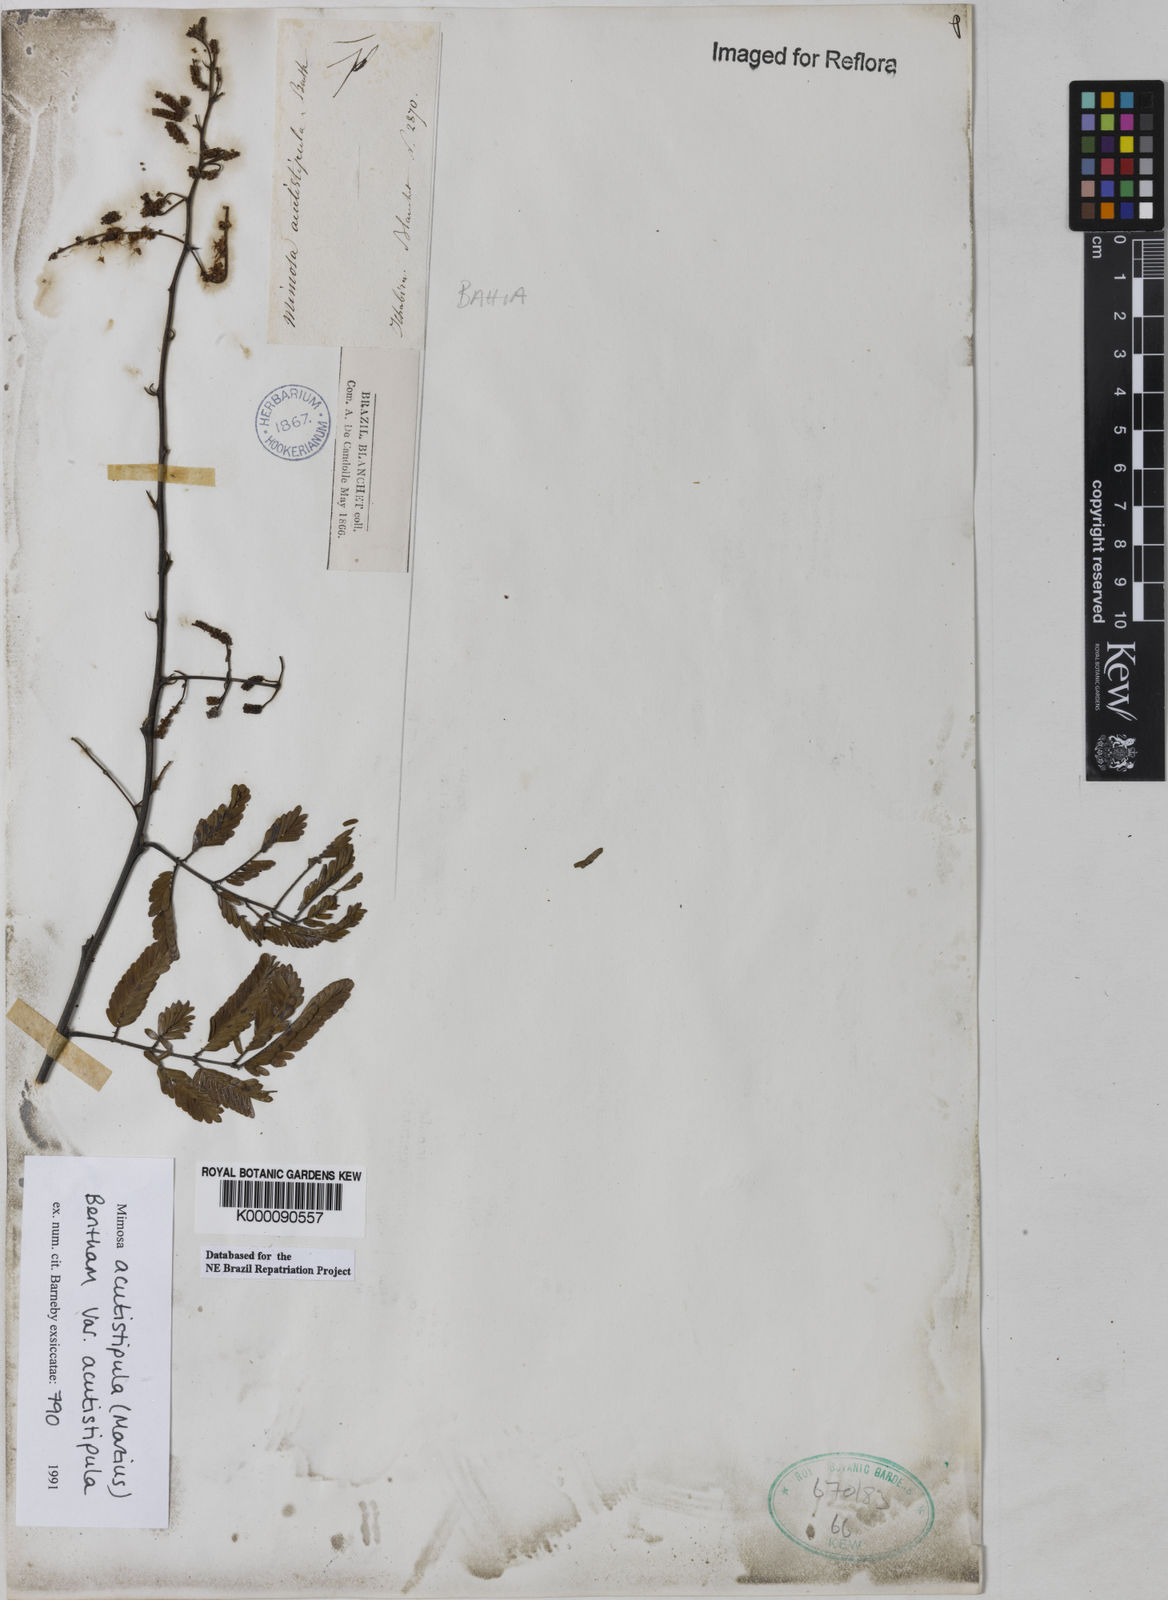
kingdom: Plantae
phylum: Tracheophyta
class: Magnoliopsida
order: Fabales
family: Fabaceae
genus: Mimosa
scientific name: Mimosa acutistipula
